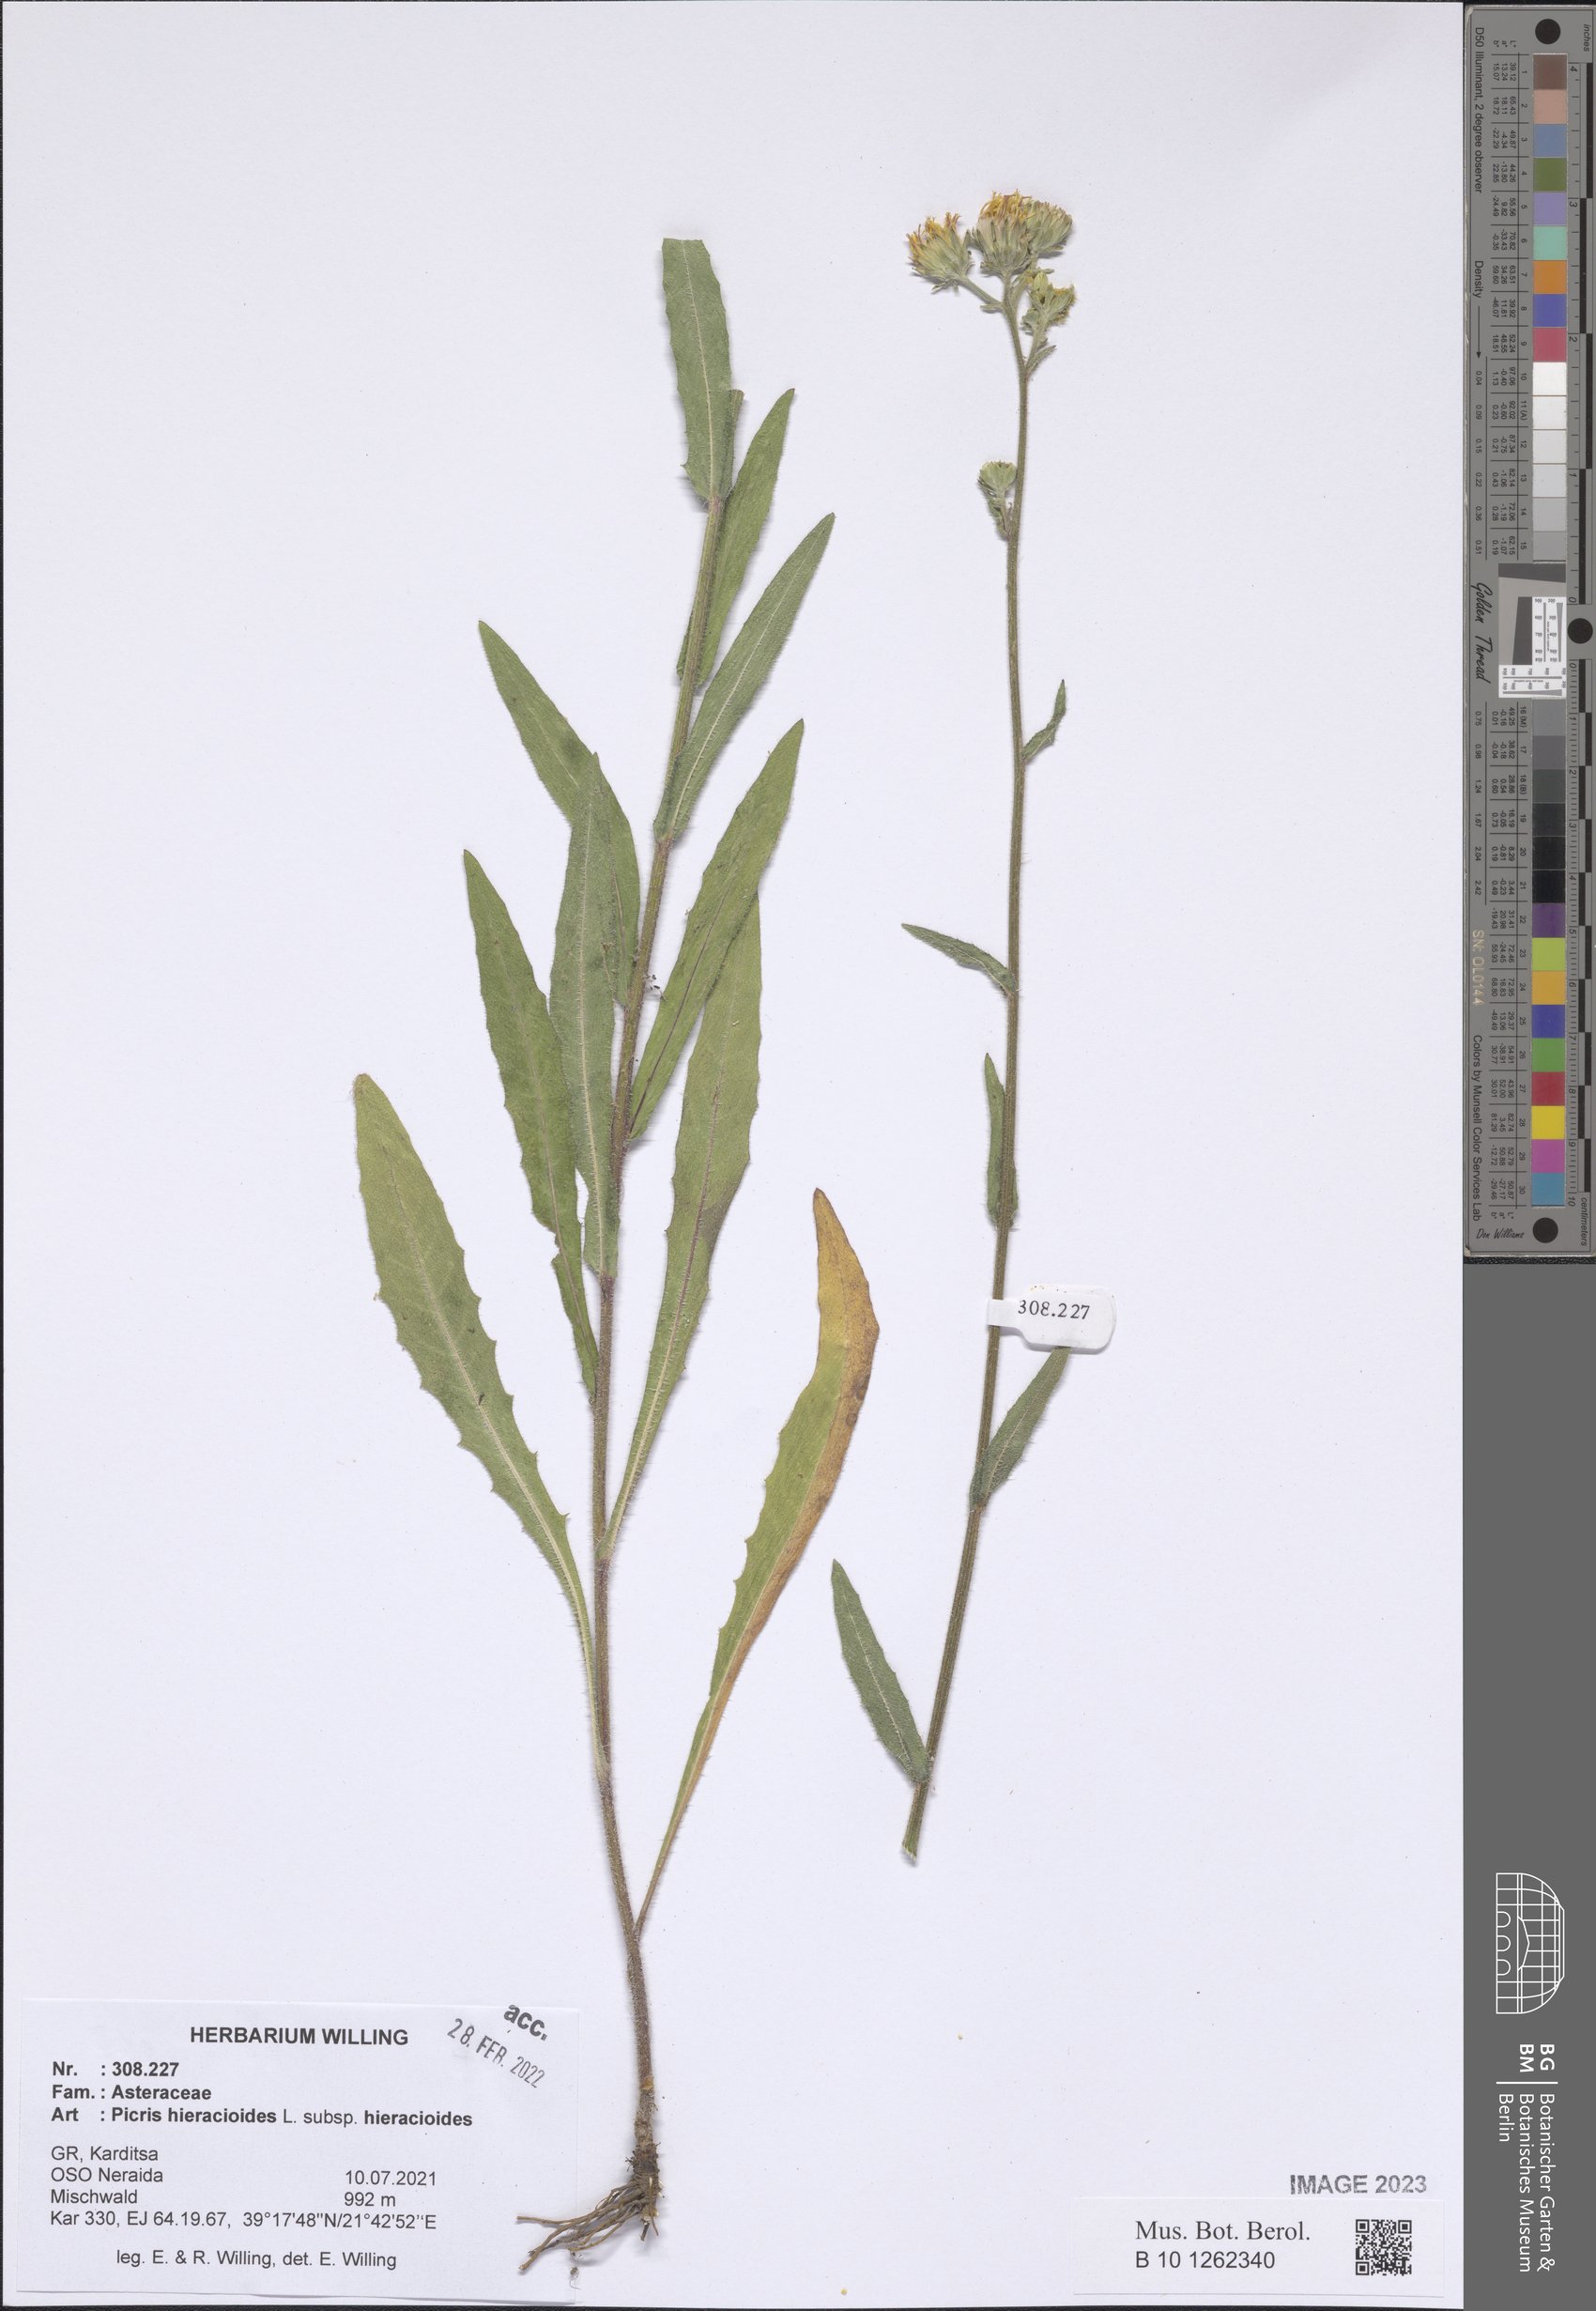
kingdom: Plantae
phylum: Tracheophyta
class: Magnoliopsida
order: Asterales
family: Asteraceae
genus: Picris
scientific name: Picris hieracioides
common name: Hawkweed oxtongue
